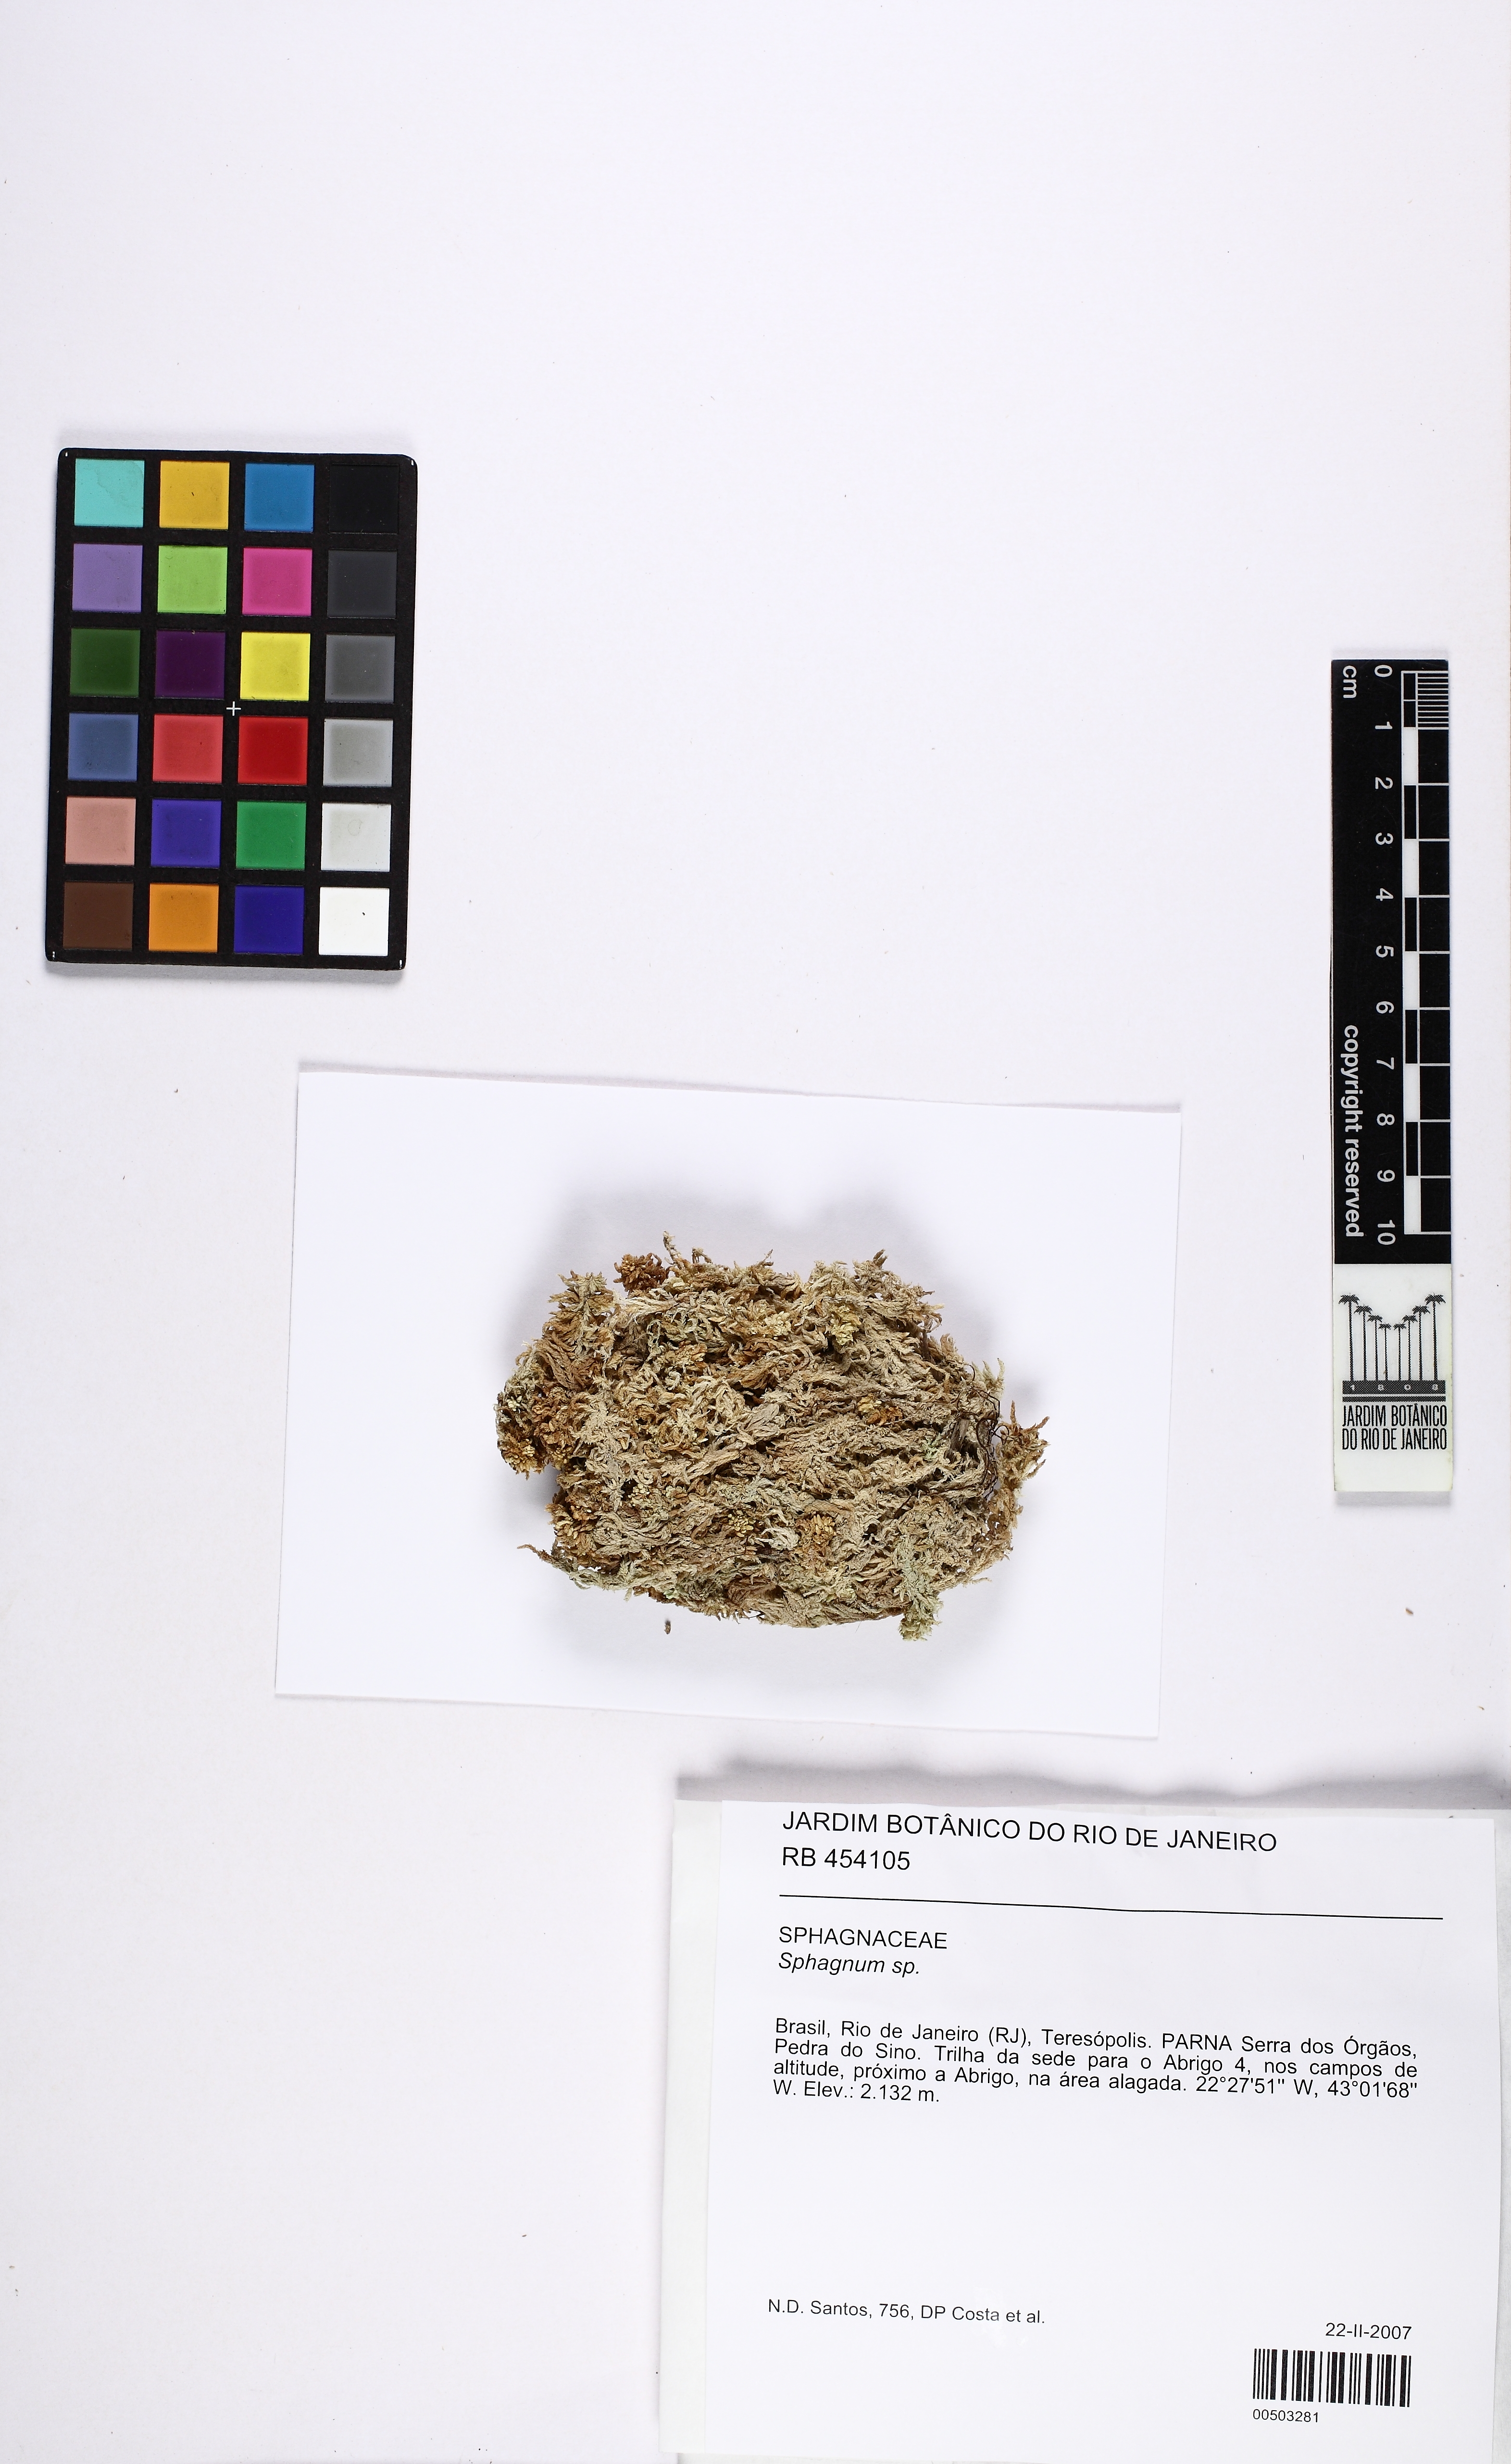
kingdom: Plantae
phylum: Bryophyta
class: Sphagnopsida
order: Sphagnales
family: Sphagnaceae
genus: Sphagnum
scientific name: Sphagnum
